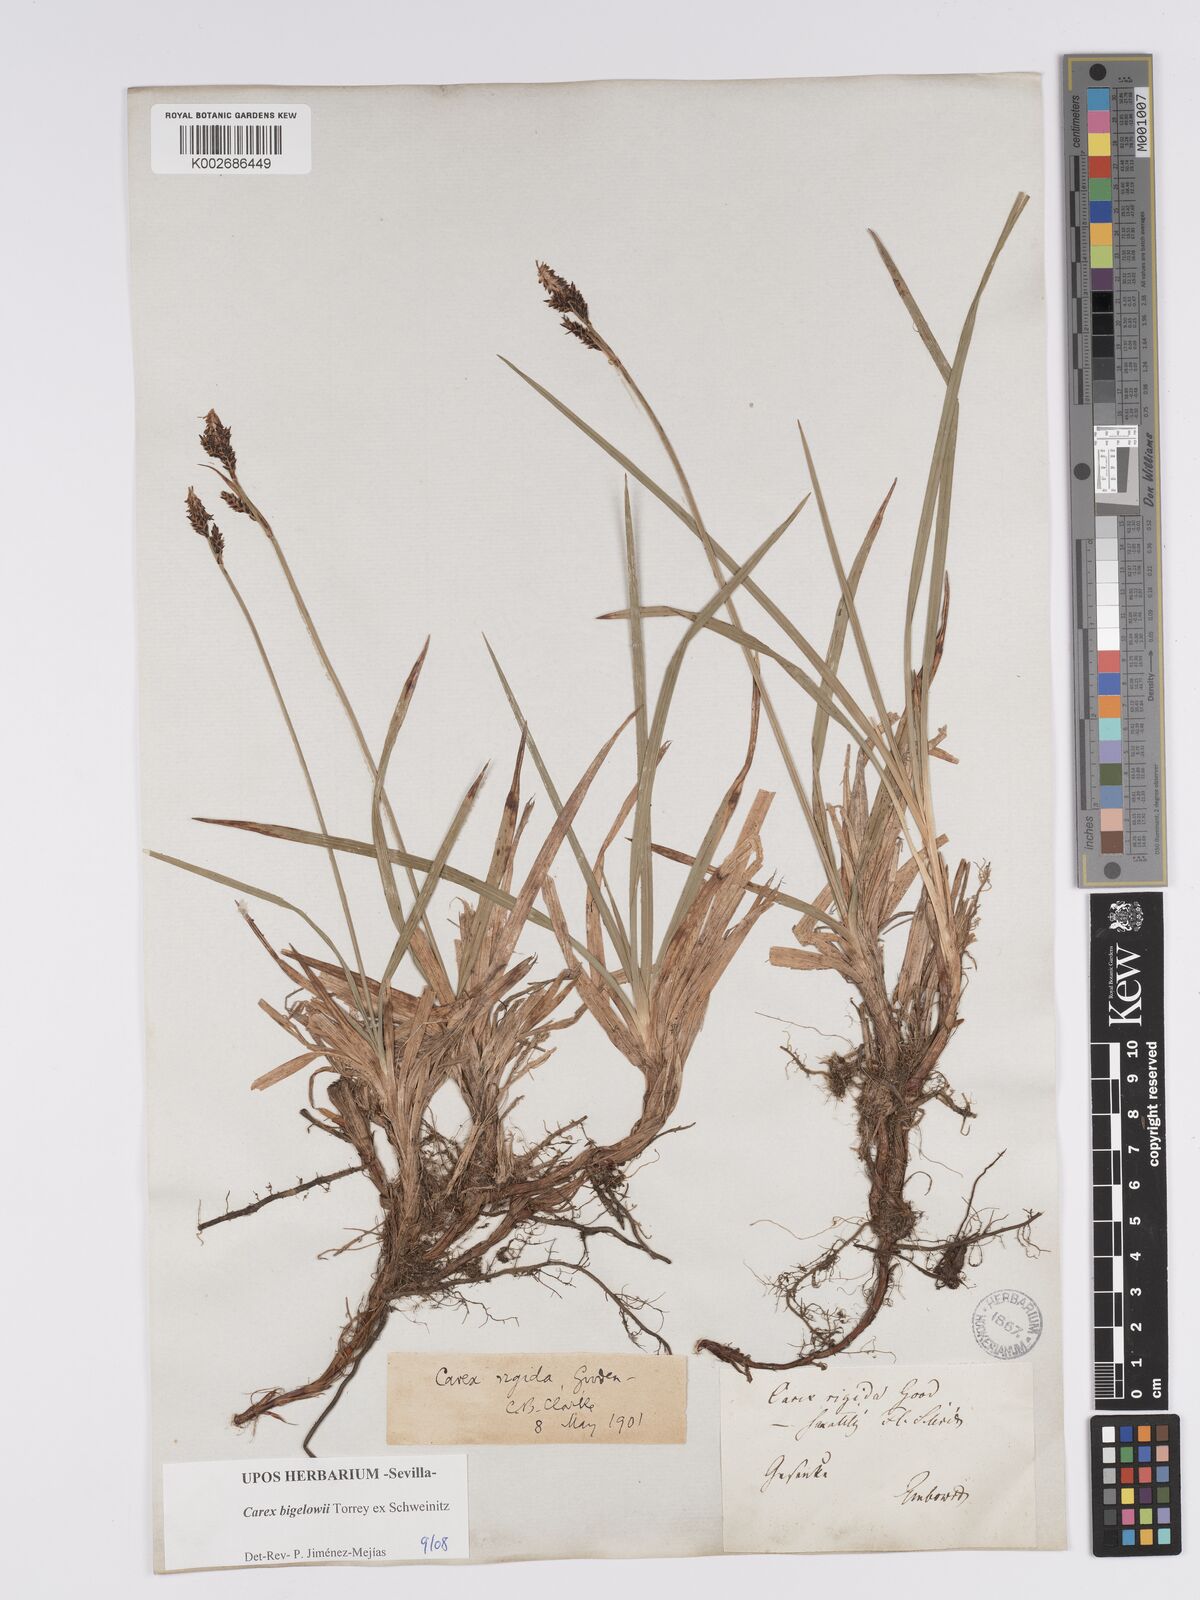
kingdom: Plantae
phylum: Tracheophyta
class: Liliopsida
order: Poales
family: Cyperaceae
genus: Carex
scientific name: Carex bigelowii
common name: Stiff sedge
